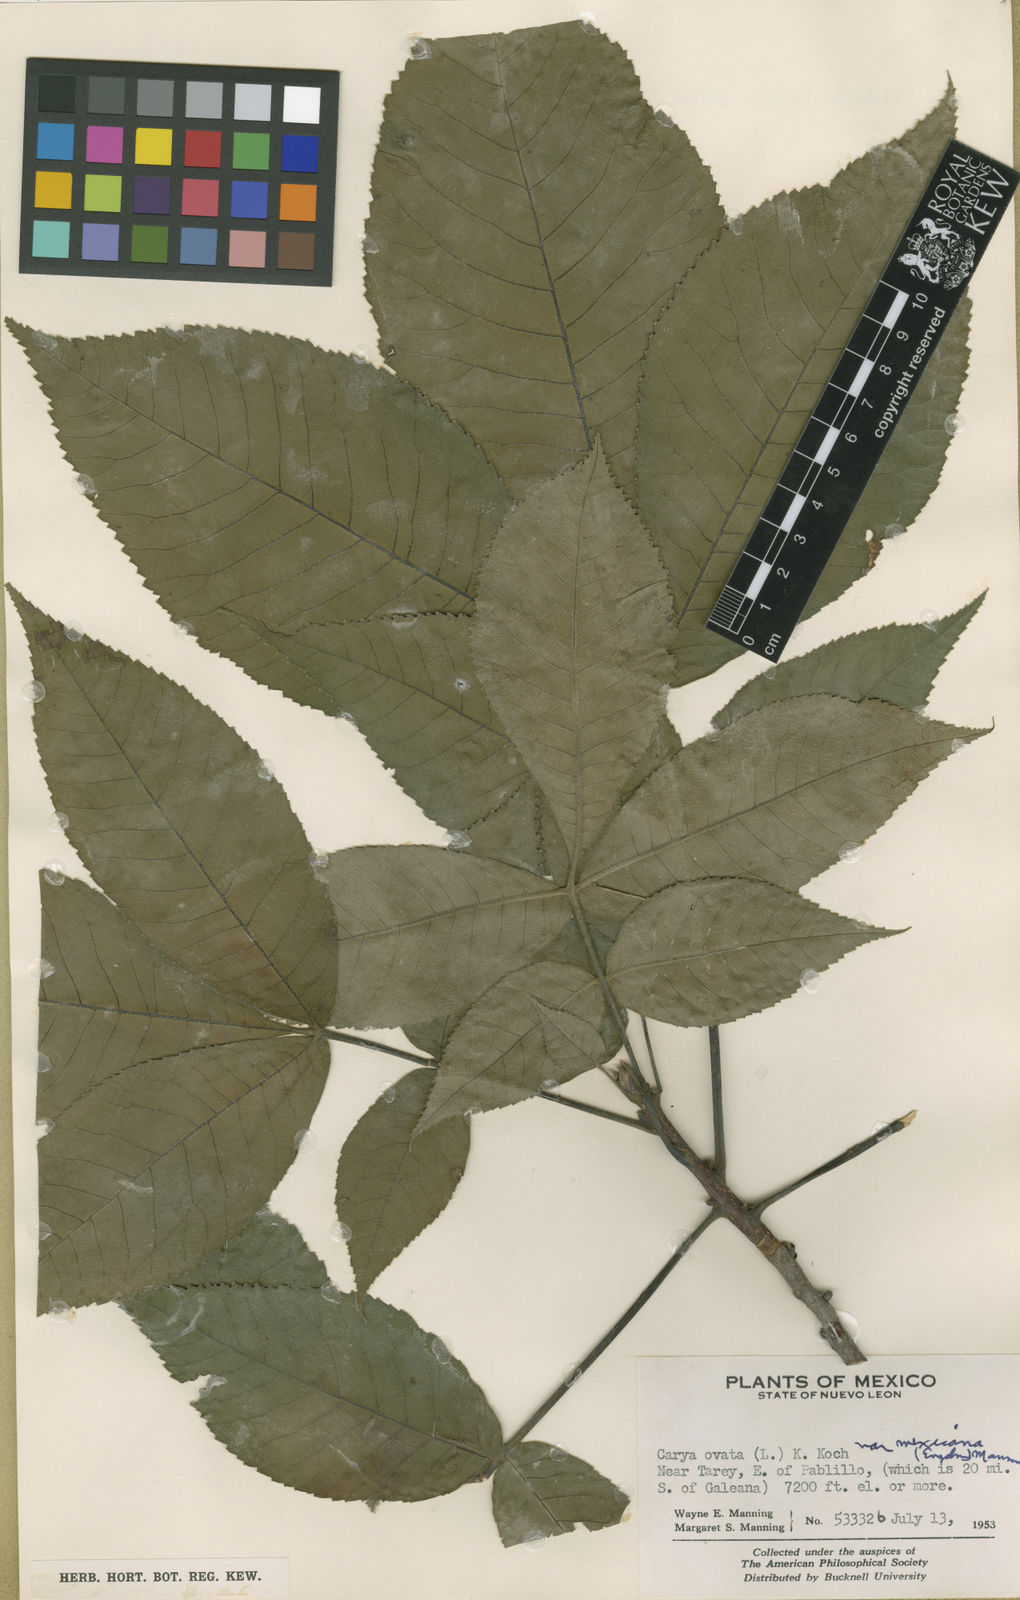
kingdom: Plantae
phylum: Tracheophyta
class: Magnoliopsida
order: Fagales
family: Juglandaceae
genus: Carya
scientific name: Carya ovata
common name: Shagbark hickory
